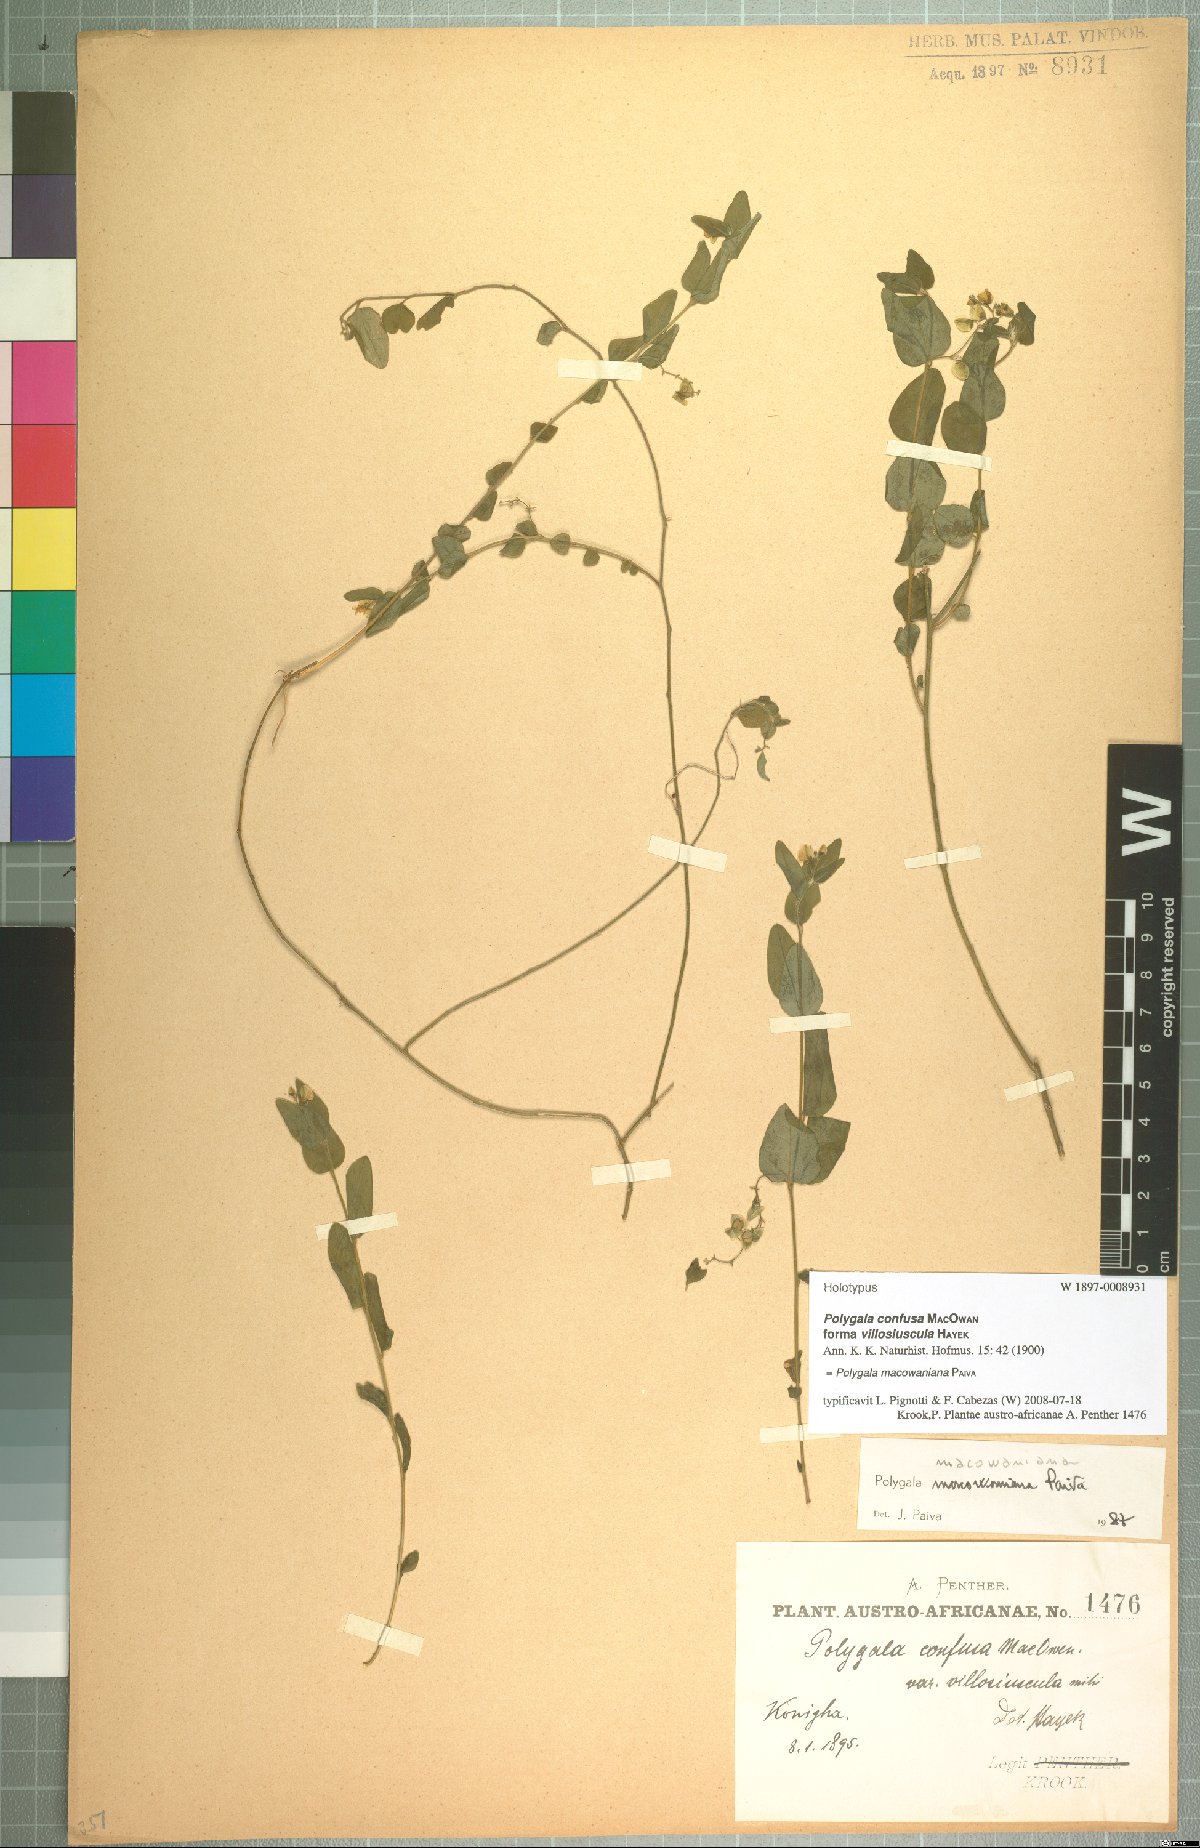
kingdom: Plantae
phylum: Tracheophyta
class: Magnoliopsida
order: Fabales
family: Polygalaceae
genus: Polygala
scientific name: Polygala macowaniana
